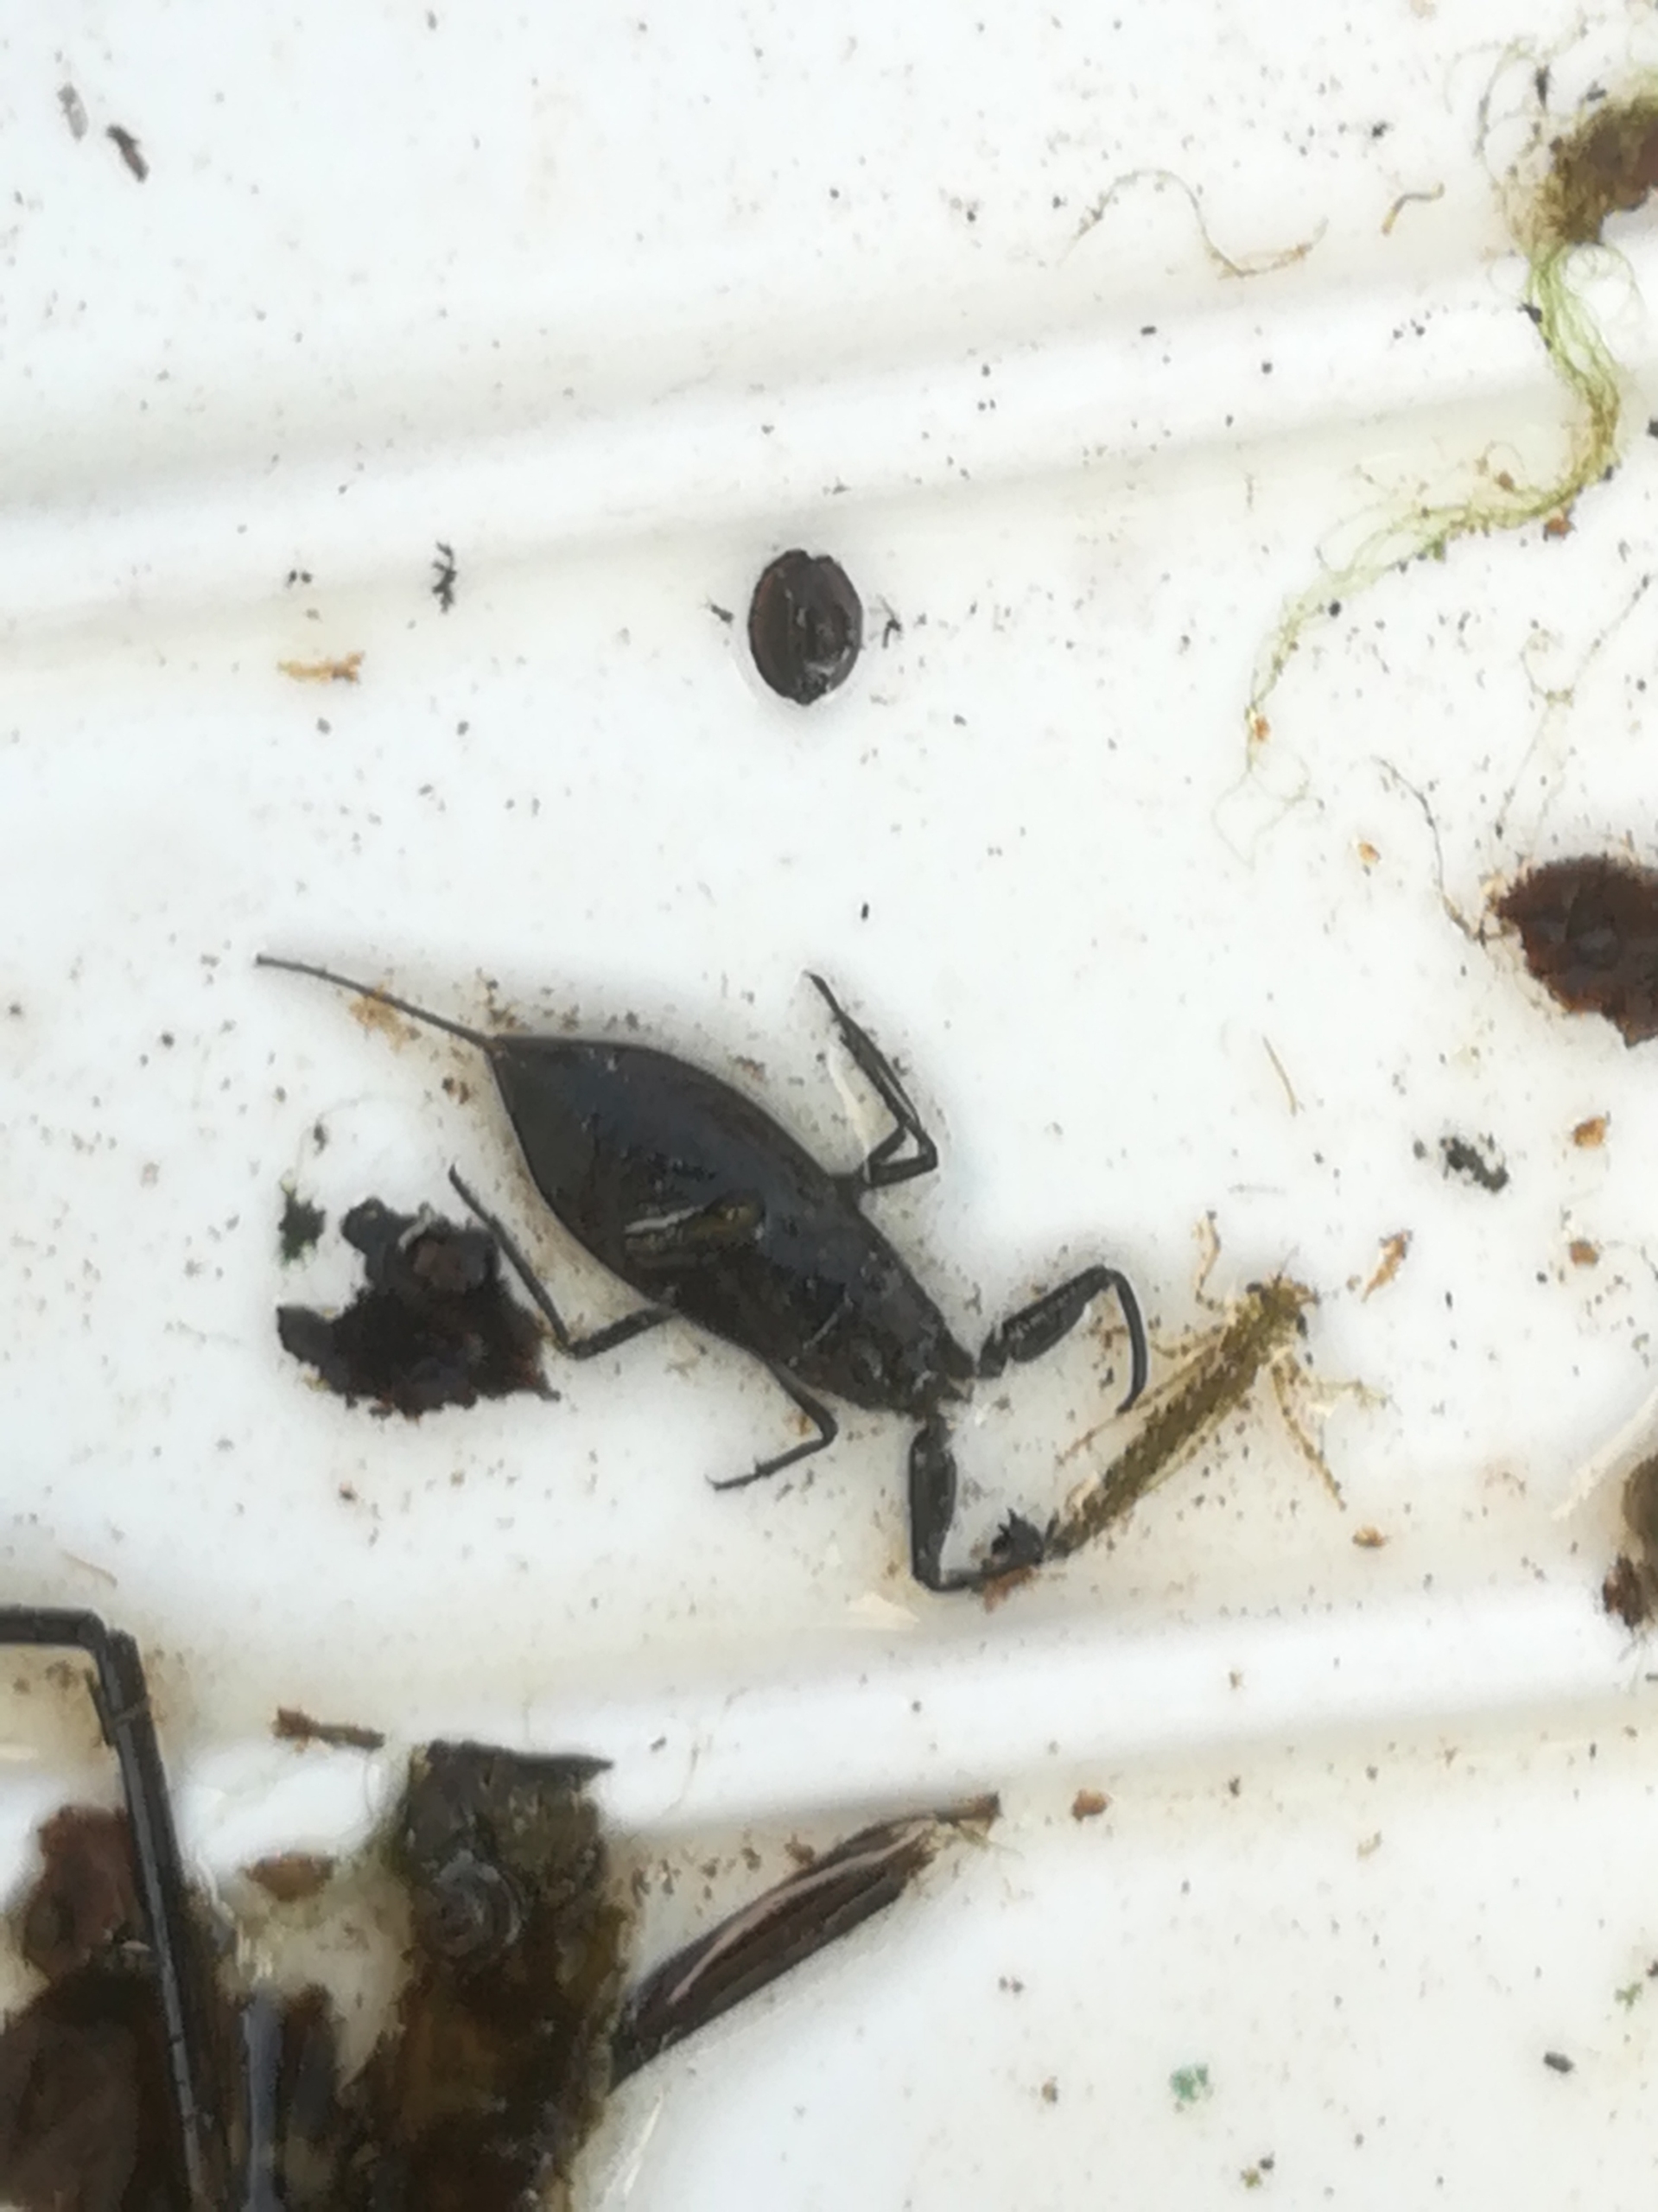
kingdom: Animalia
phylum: Arthropoda
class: Insecta
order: Hemiptera
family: Nepidae
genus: Nepa
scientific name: Nepa cinerea
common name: Skorpiontæge
